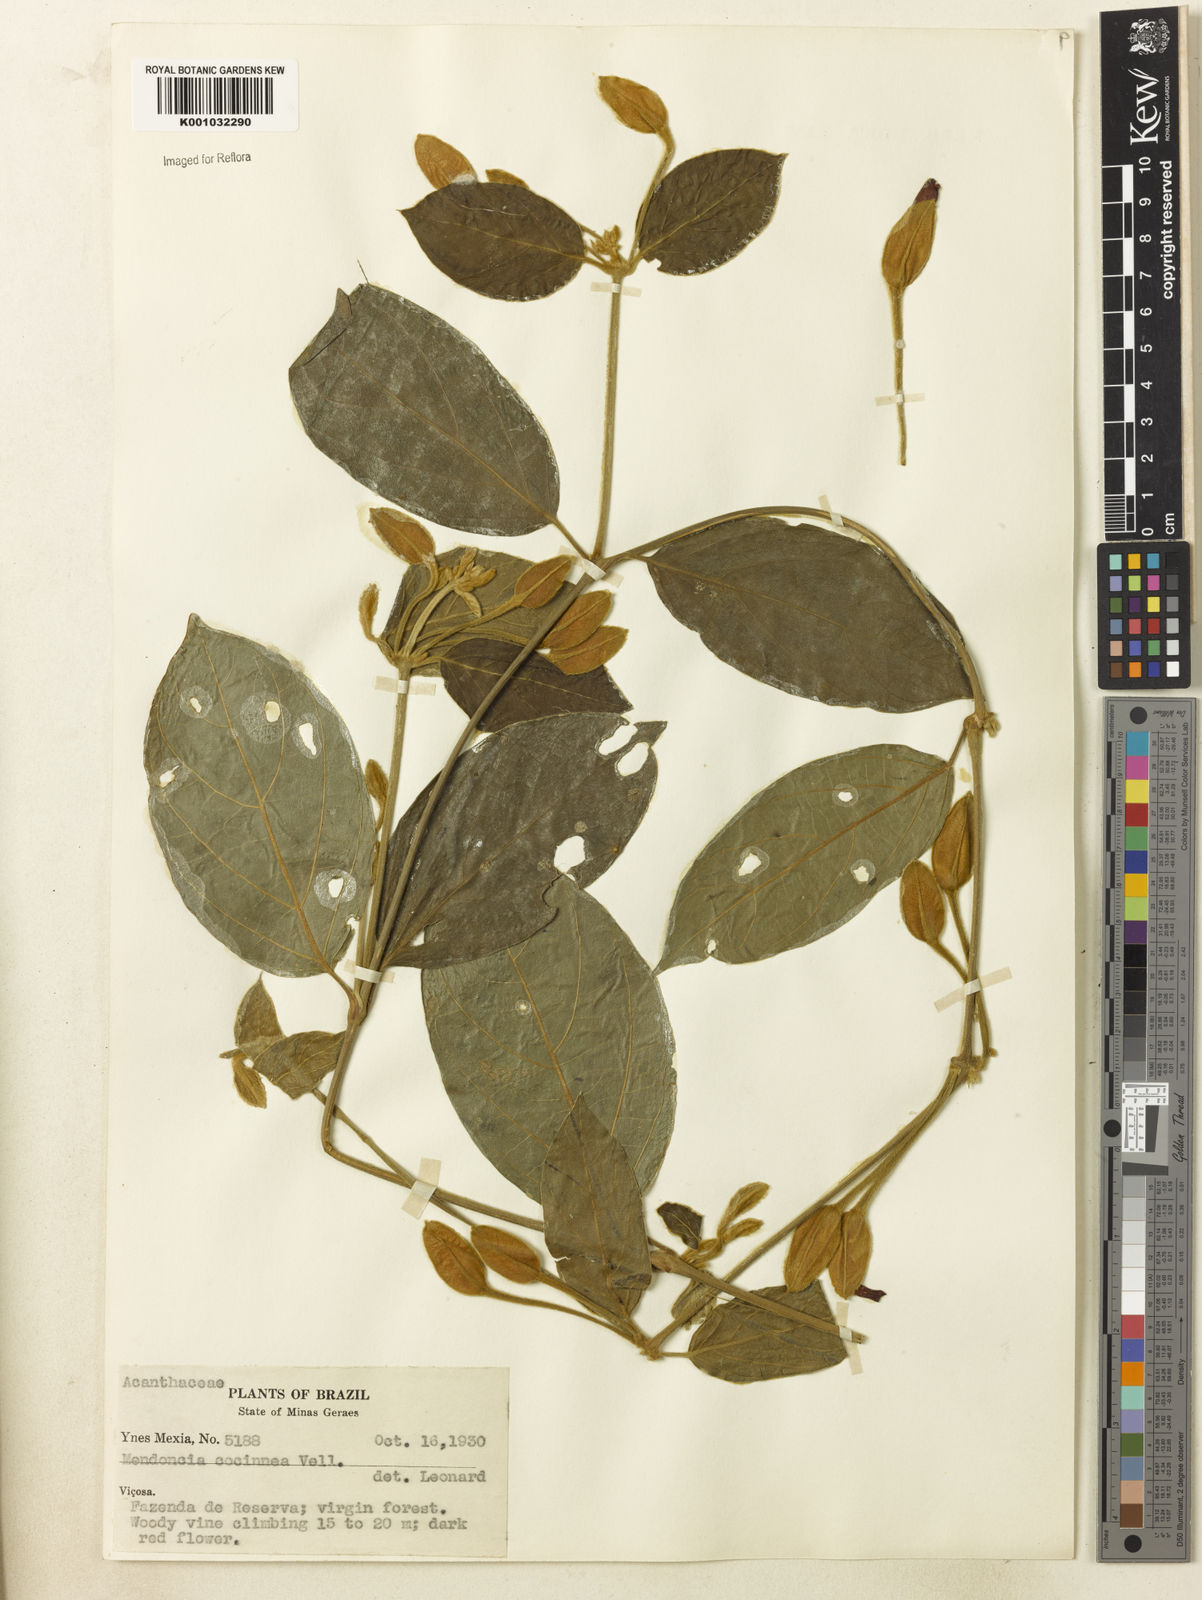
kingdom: Plantae
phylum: Tracheophyta
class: Magnoliopsida
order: Lamiales
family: Acanthaceae
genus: Mendoncia
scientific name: Mendoncia coccinea
